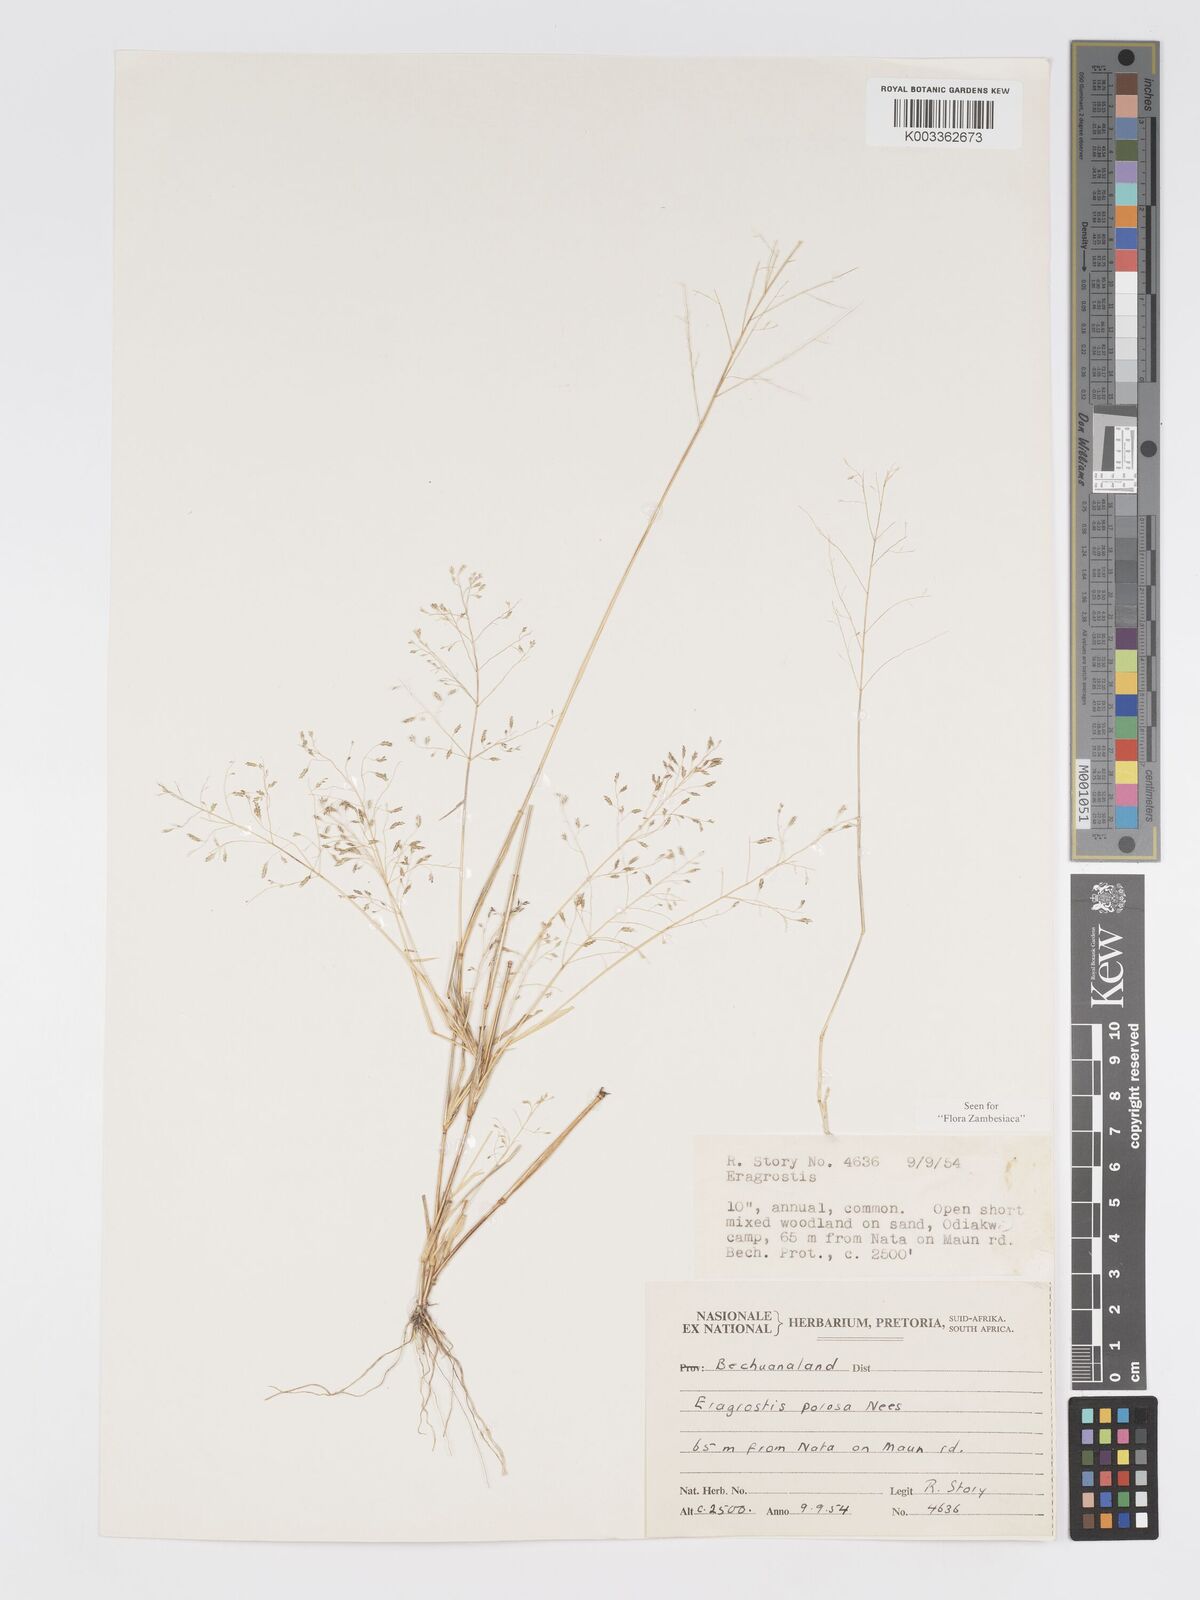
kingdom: Plantae
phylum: Tracheophyta
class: Liliopsida
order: Poales
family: Poaceae
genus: Eragrostis
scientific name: Eragrostis porosa
